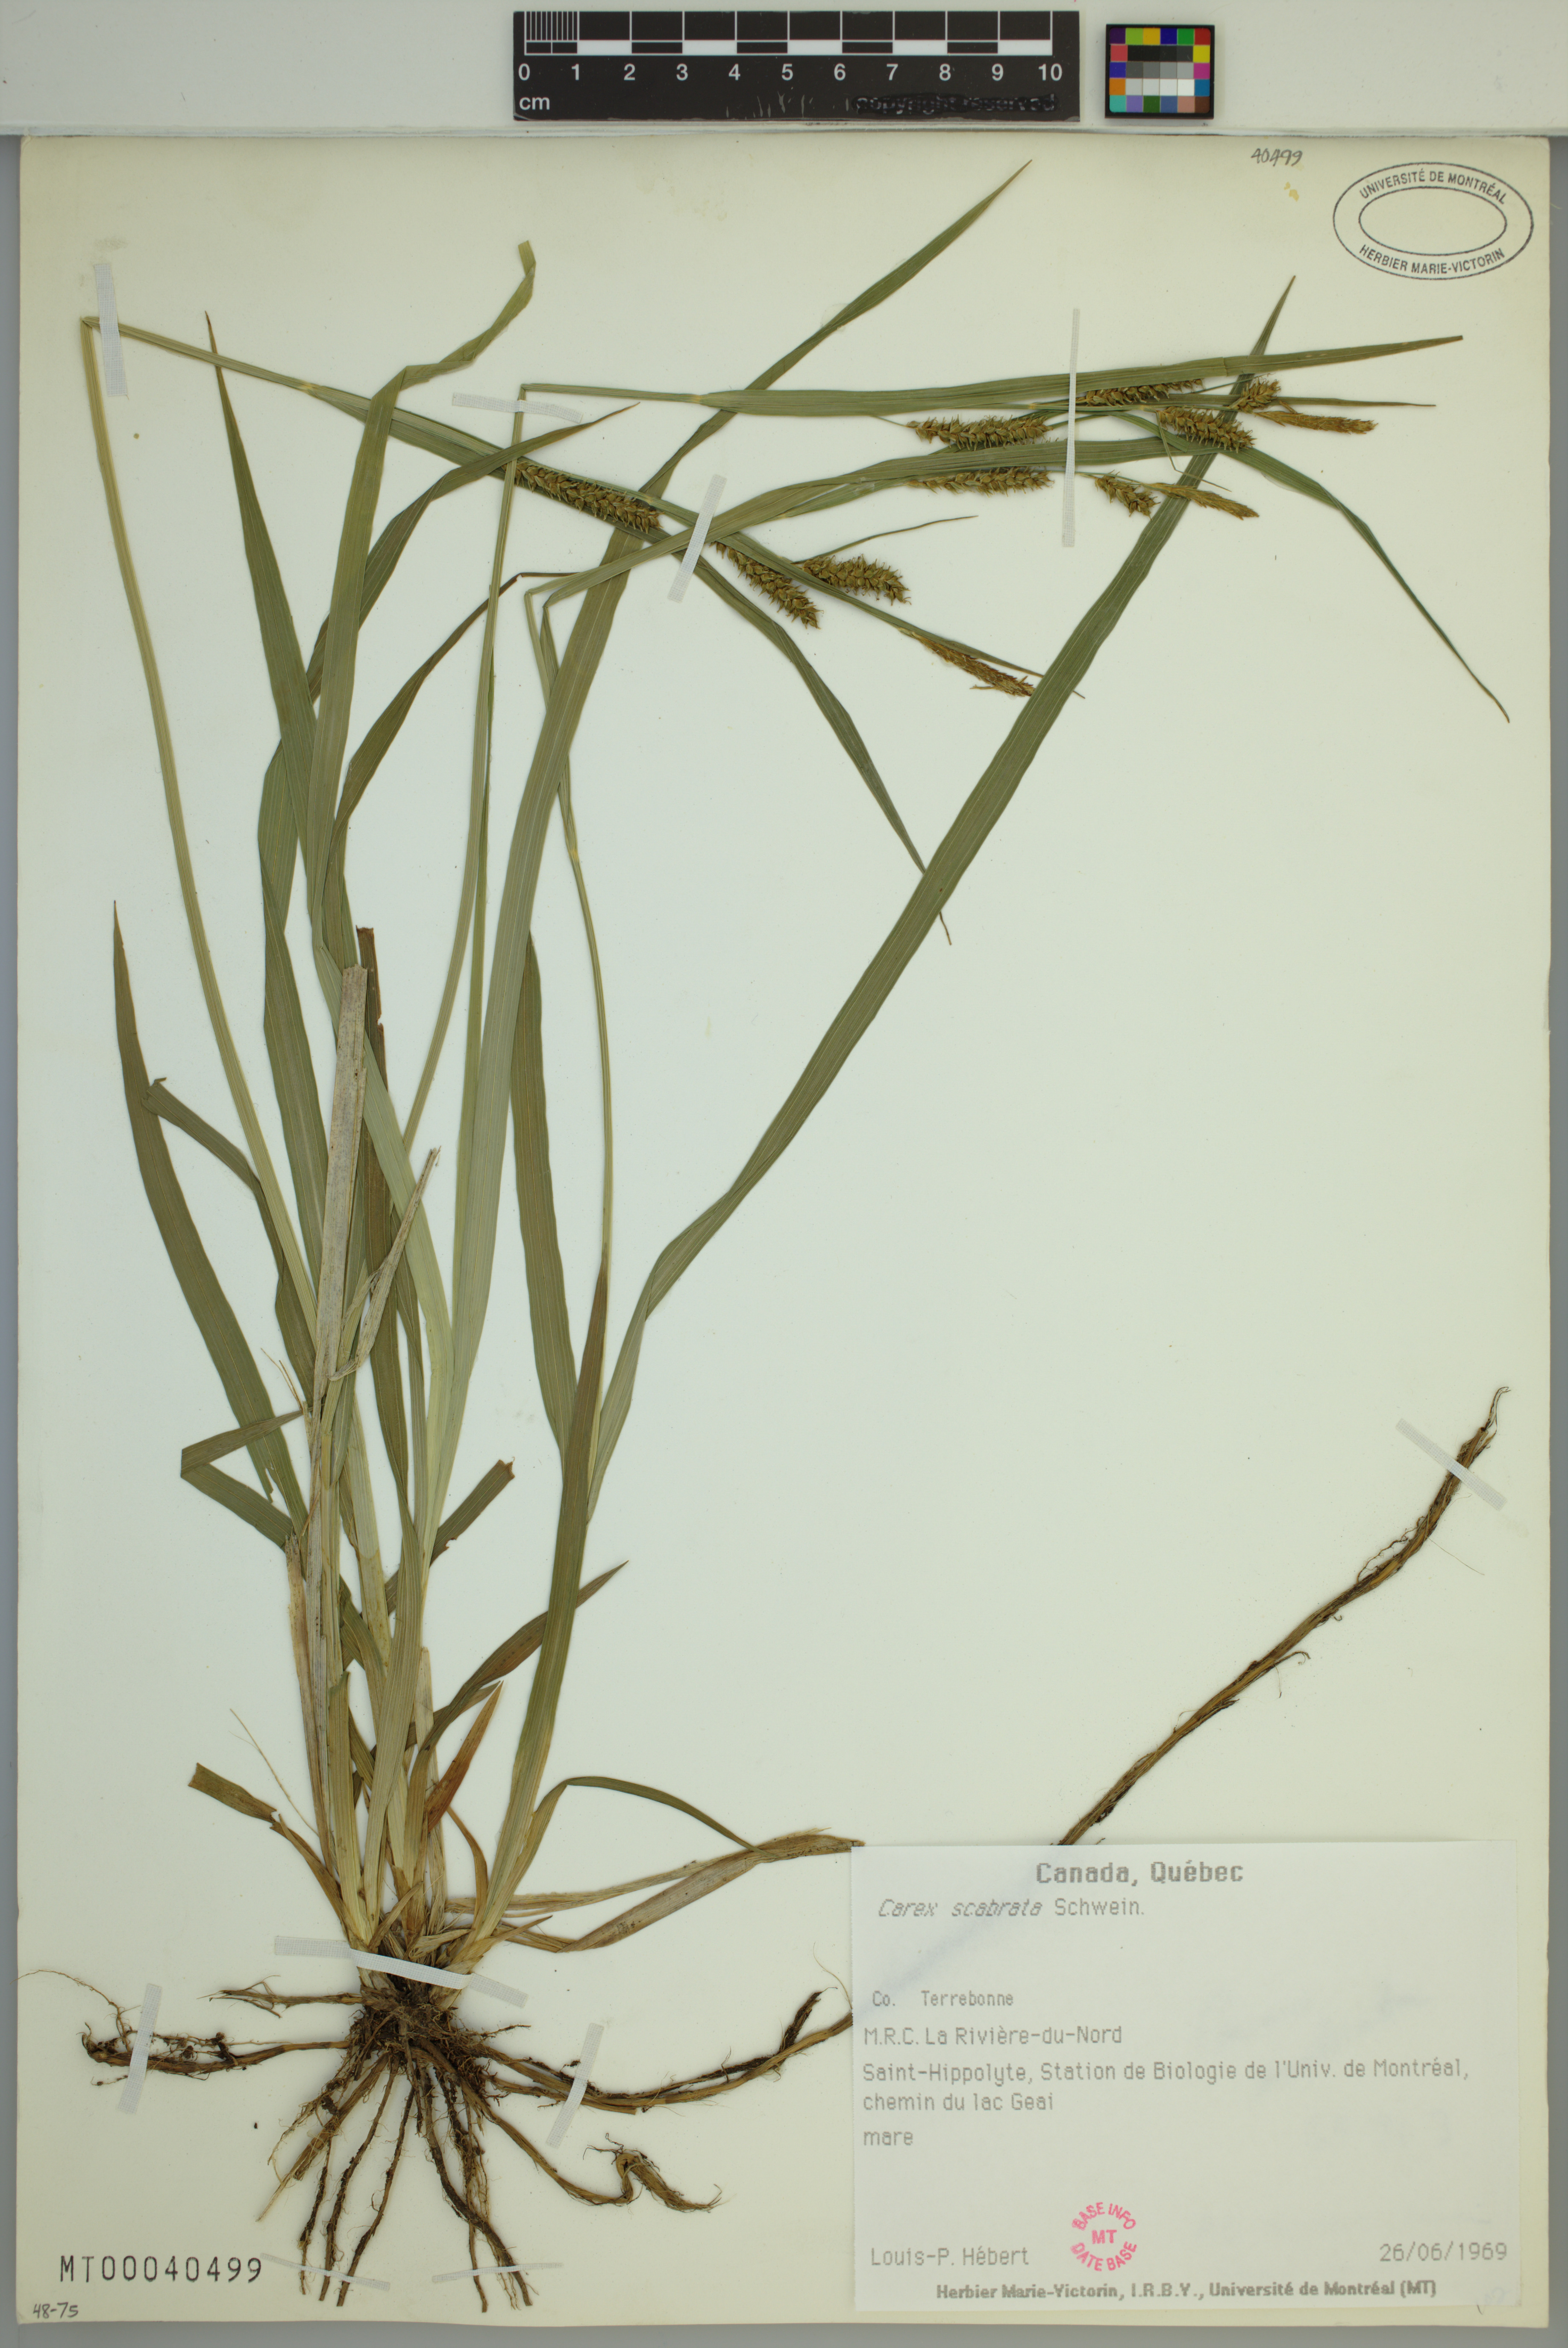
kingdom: Plantae
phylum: Tracheophyta
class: Liliopsida
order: Poales
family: Cyperaceae
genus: Carex
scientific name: Carex scabrata
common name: Eastern rough sedge
